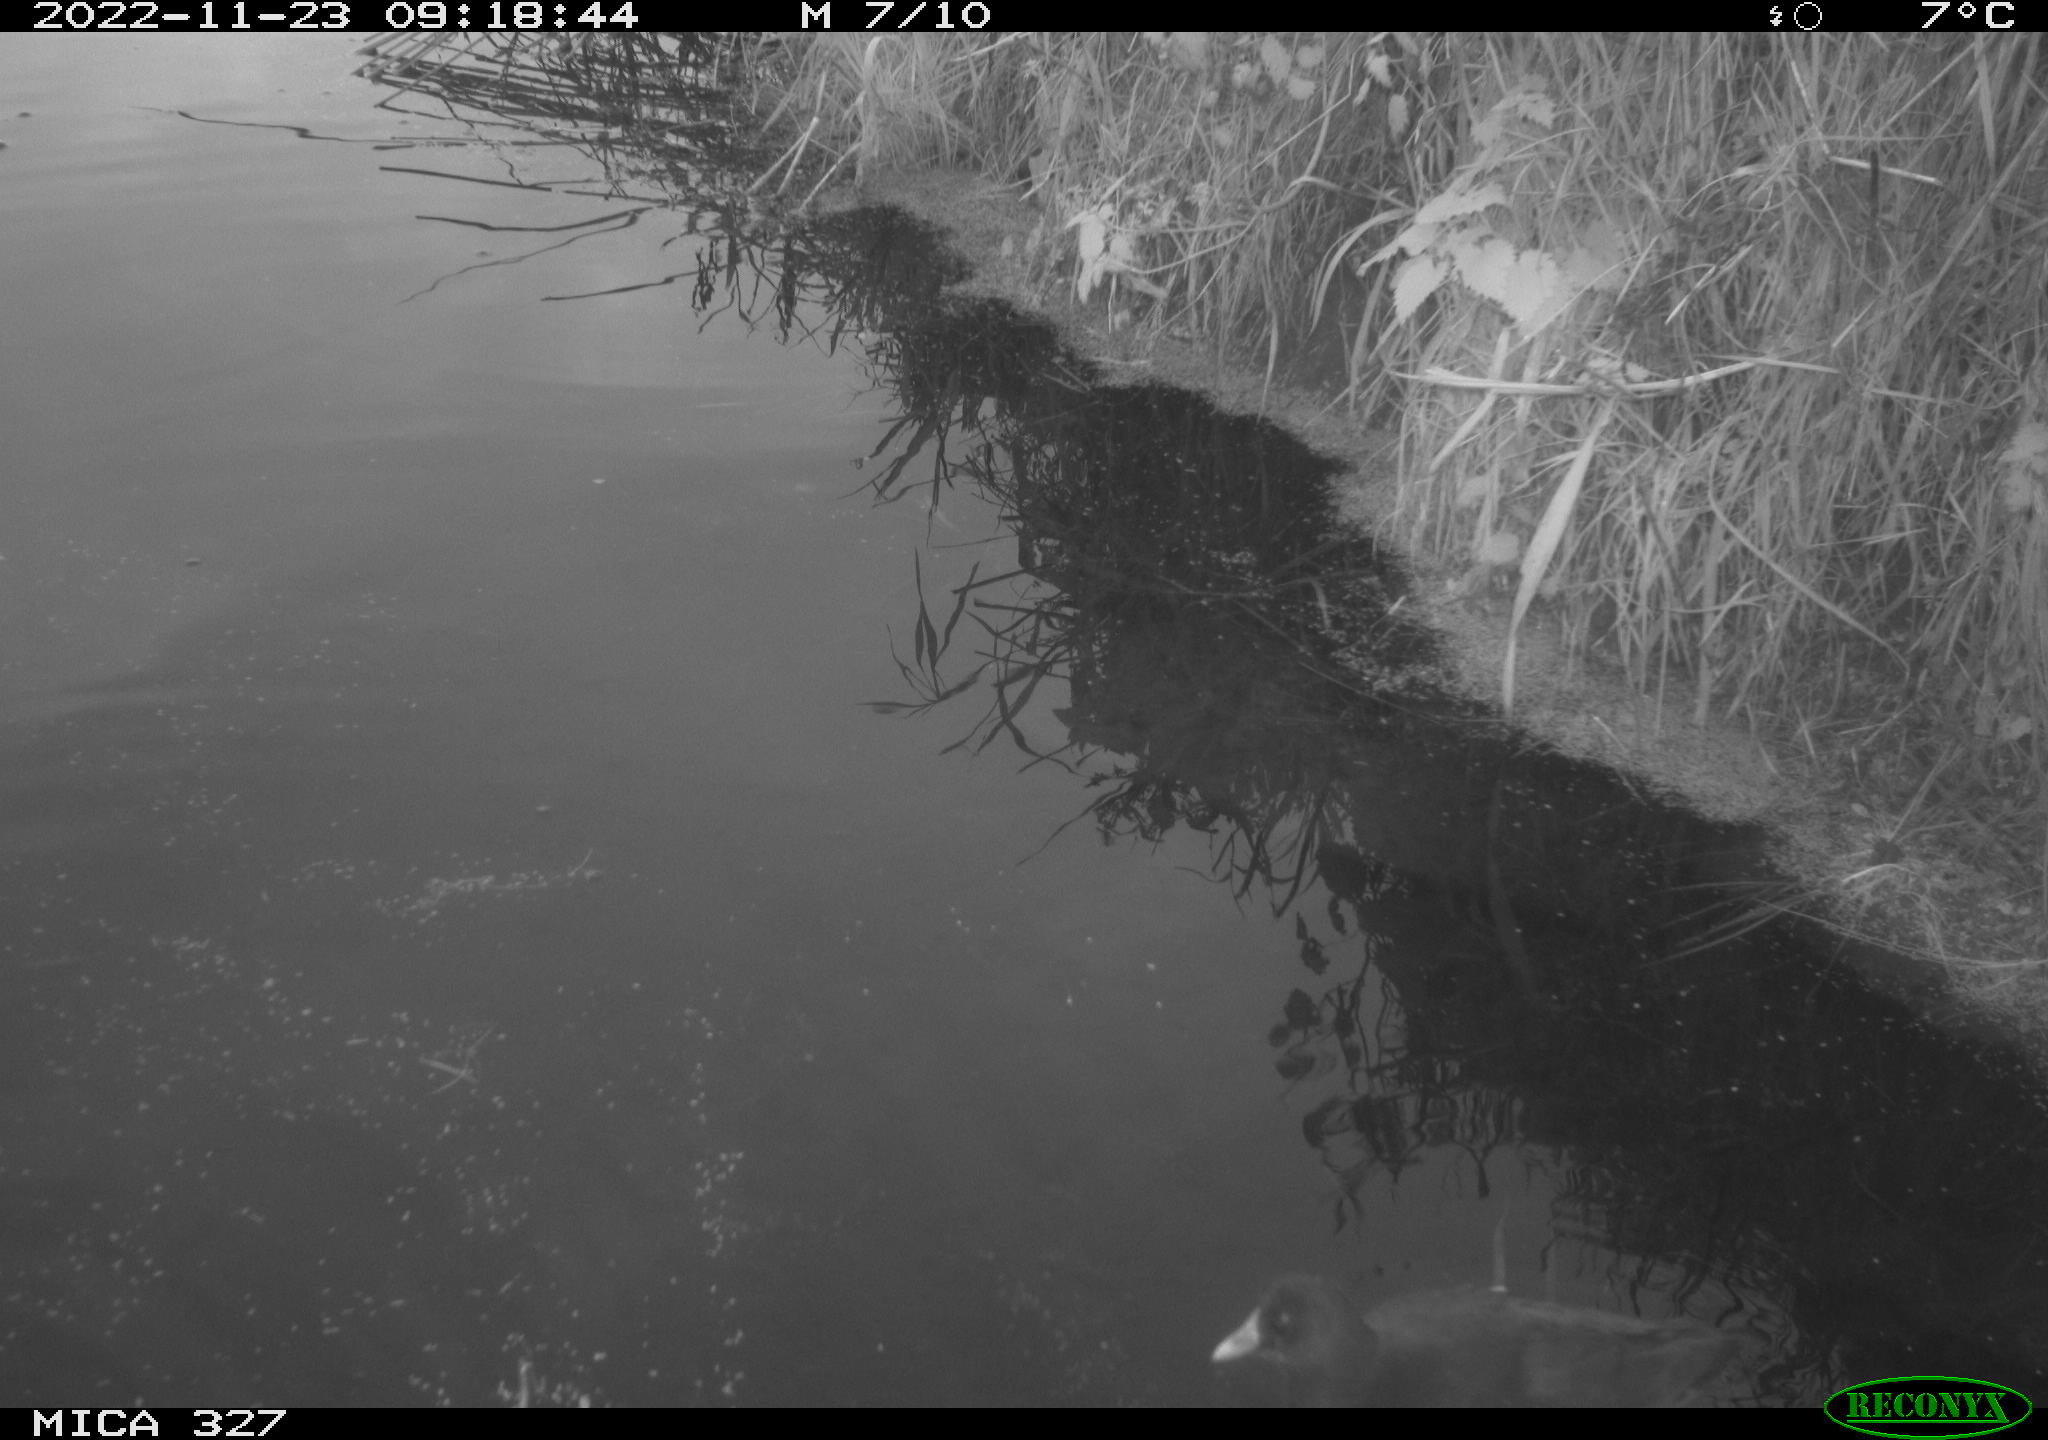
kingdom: Animalia
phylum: Chordata
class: Aves
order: Gruiformes
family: Rallidae
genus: Gallinula
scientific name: Gallinula chloropus
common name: Common moorhen
